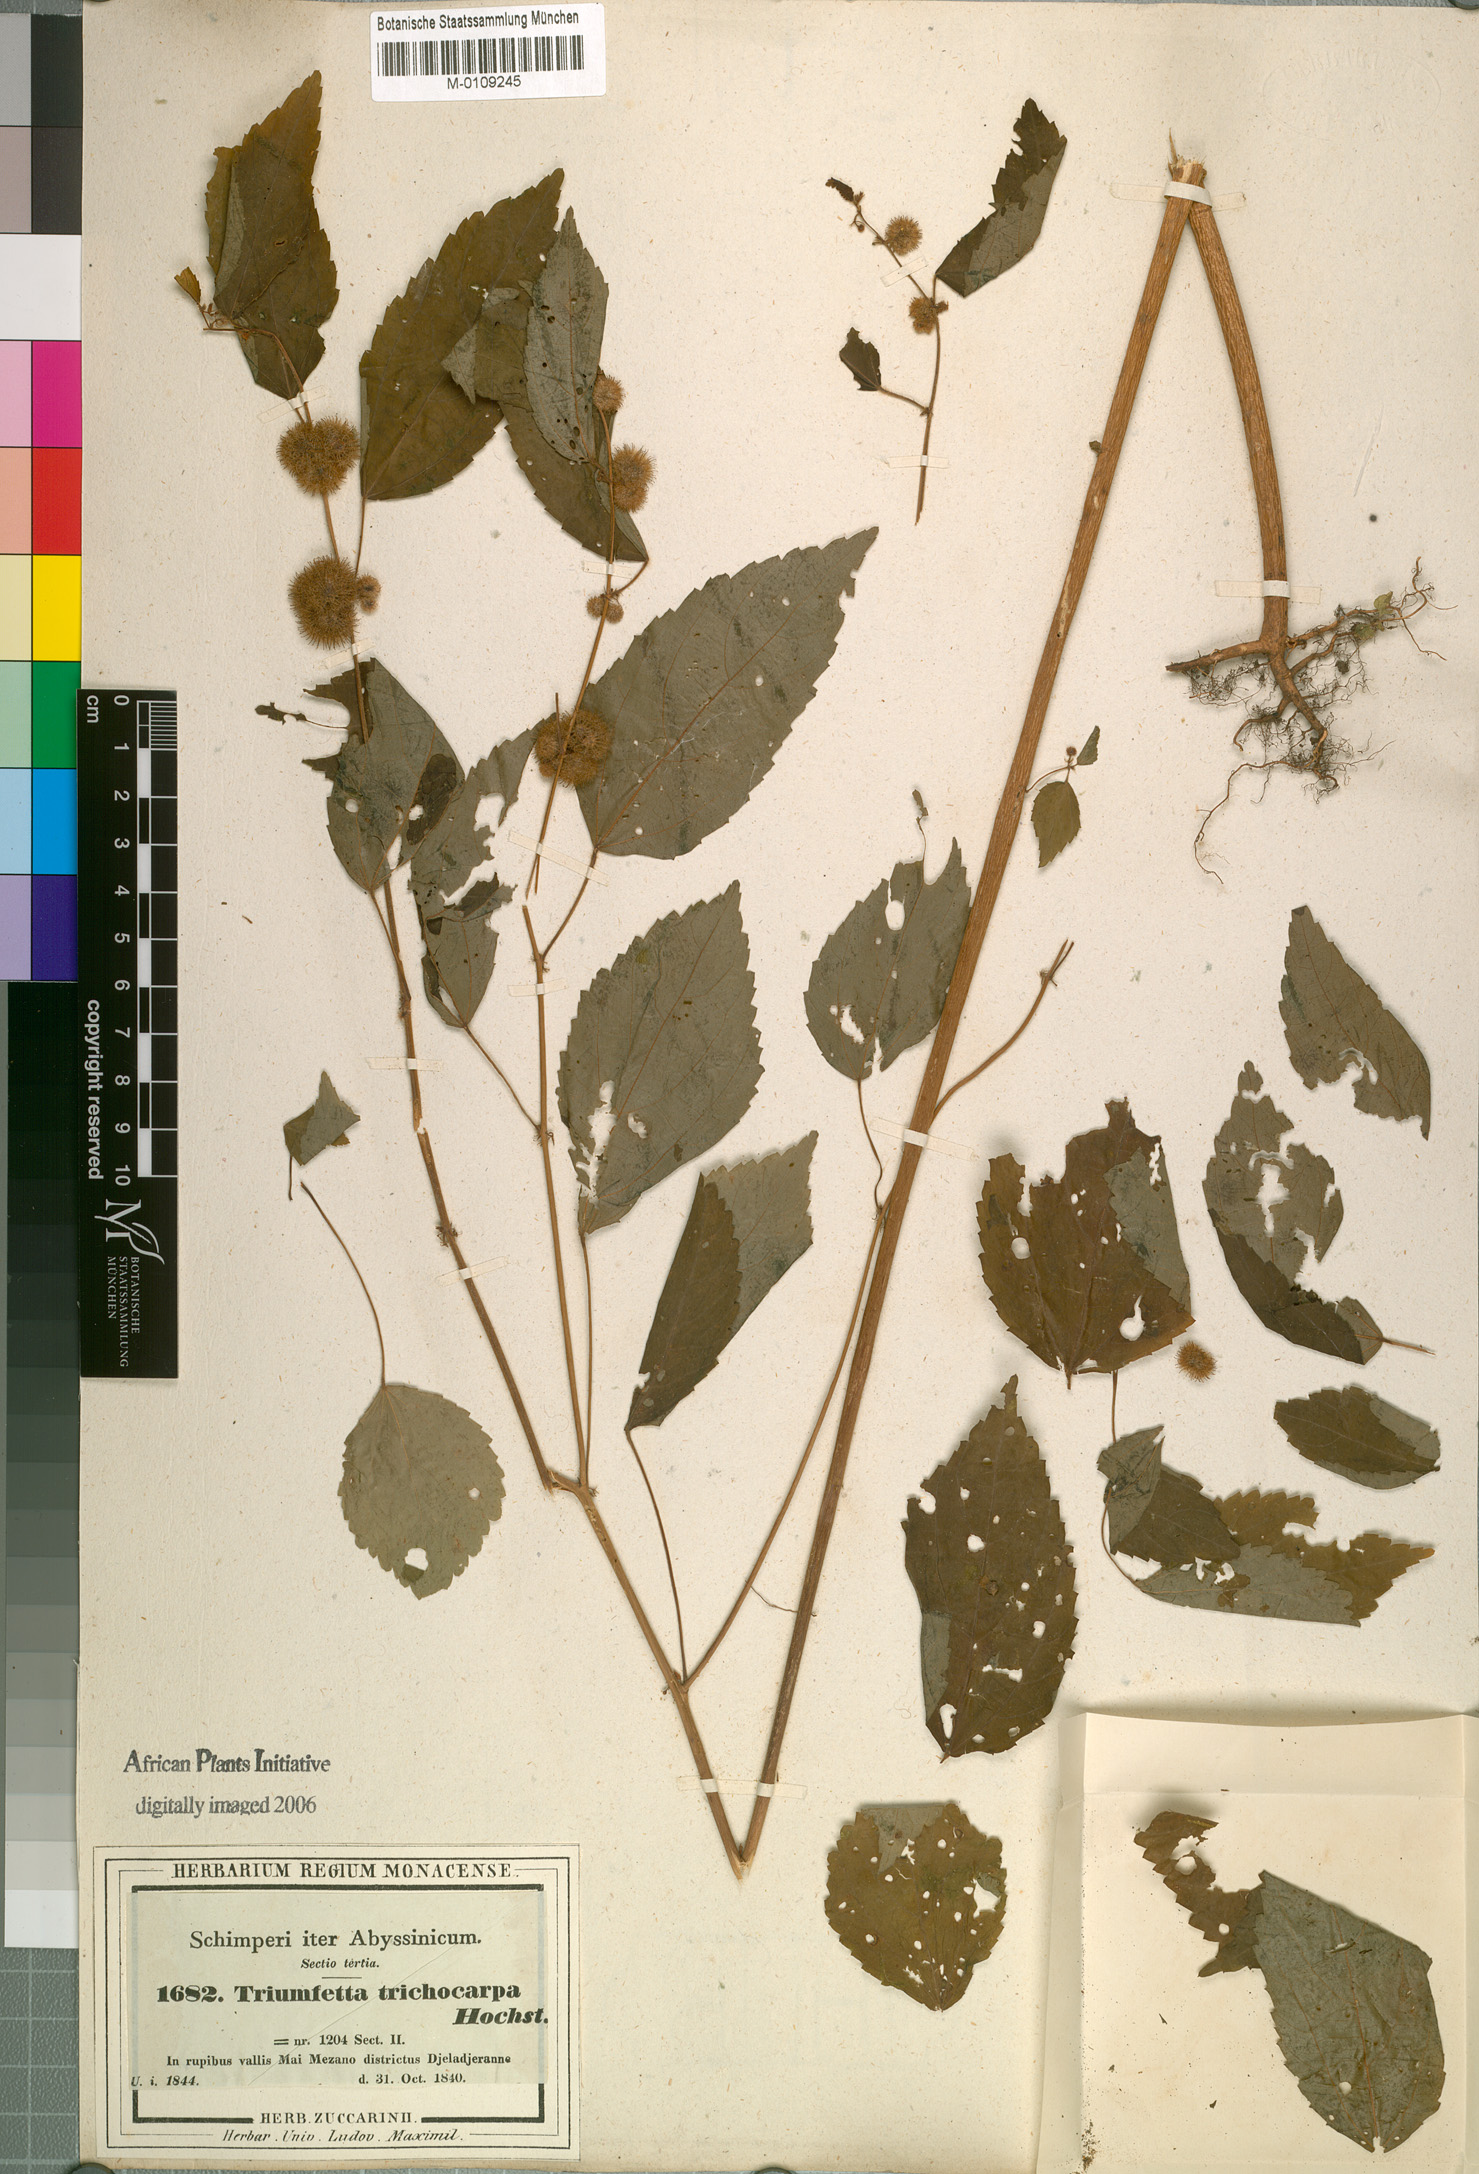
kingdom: Plantae
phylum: Tracheophyta
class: Magnoliopsida
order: Malvales
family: Malvaceae
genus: Triumfetta
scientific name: Triumfetta trichocarpa
